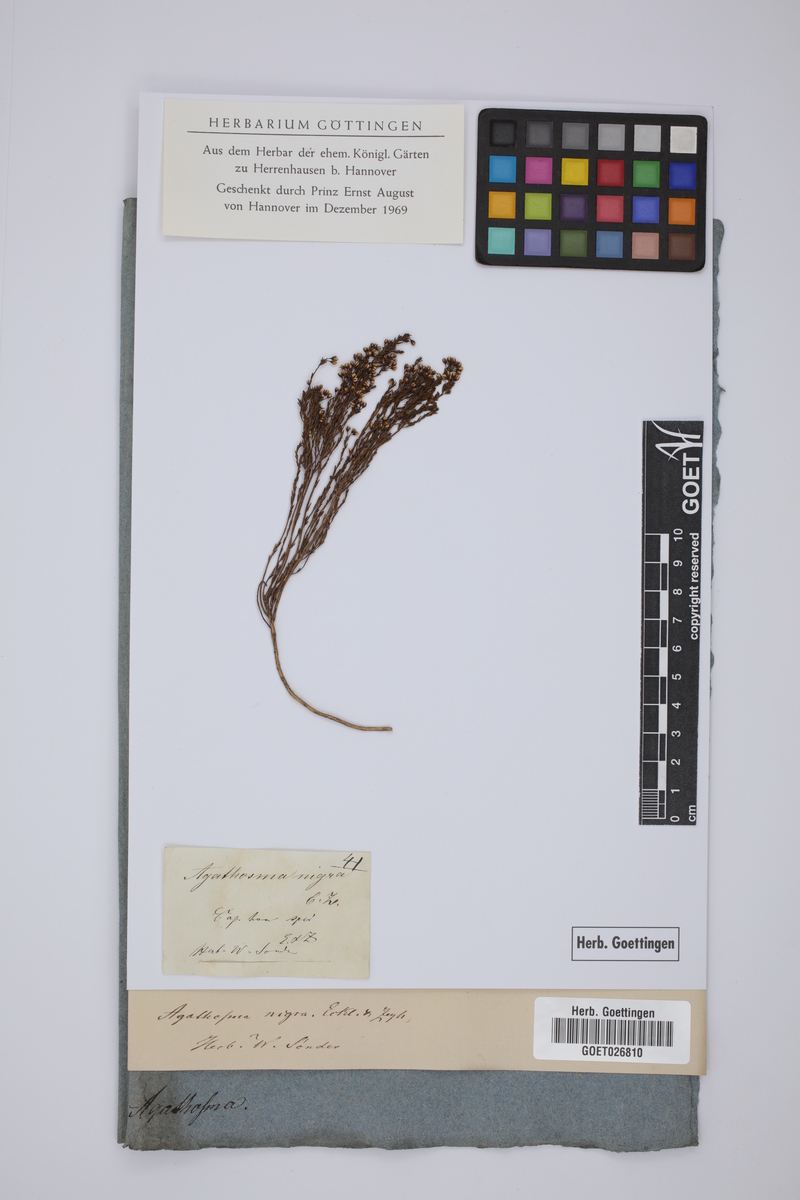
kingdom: Plantae
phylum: Tracheophyta
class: Magnoliopsida
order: Sapindales
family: Rutaceae
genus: Agathosma
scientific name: Agathosma capensis
